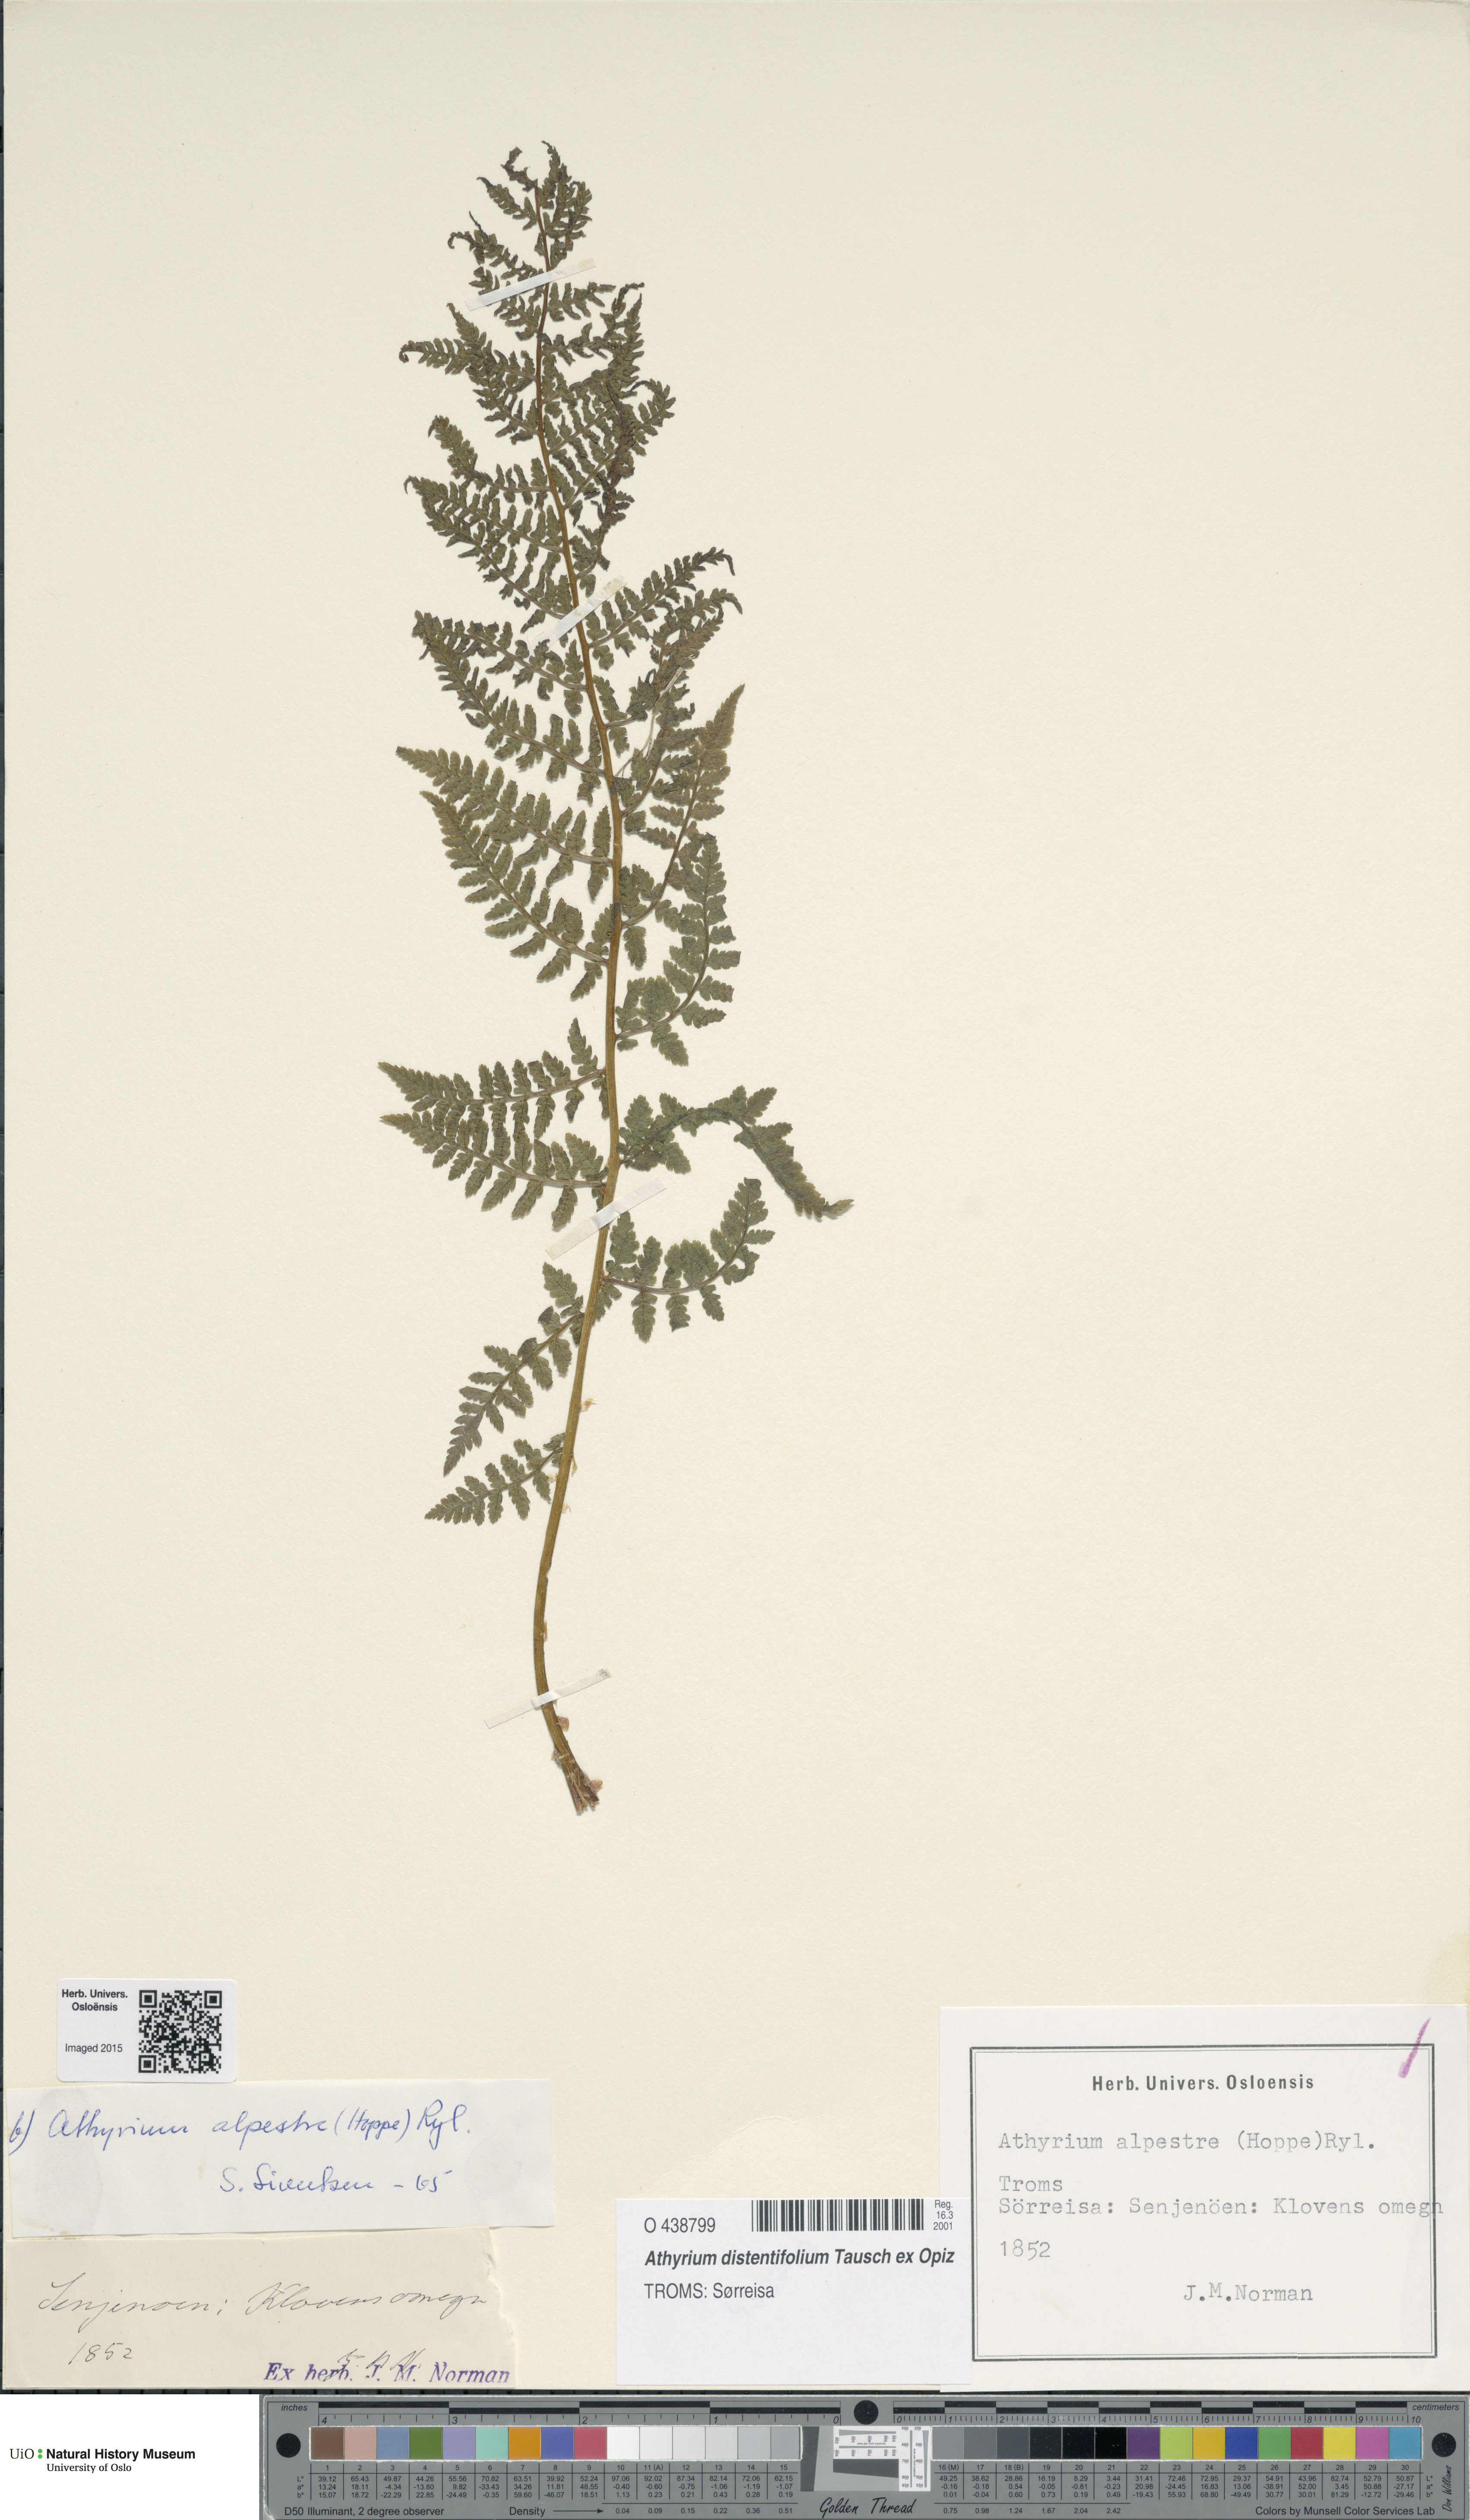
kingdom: Plantae
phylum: Tracheophyta
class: Polypodiopsida
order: Polypodiales
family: Athyriaceae
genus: Pseudathyrium
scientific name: Pseudathyrium alpestre
